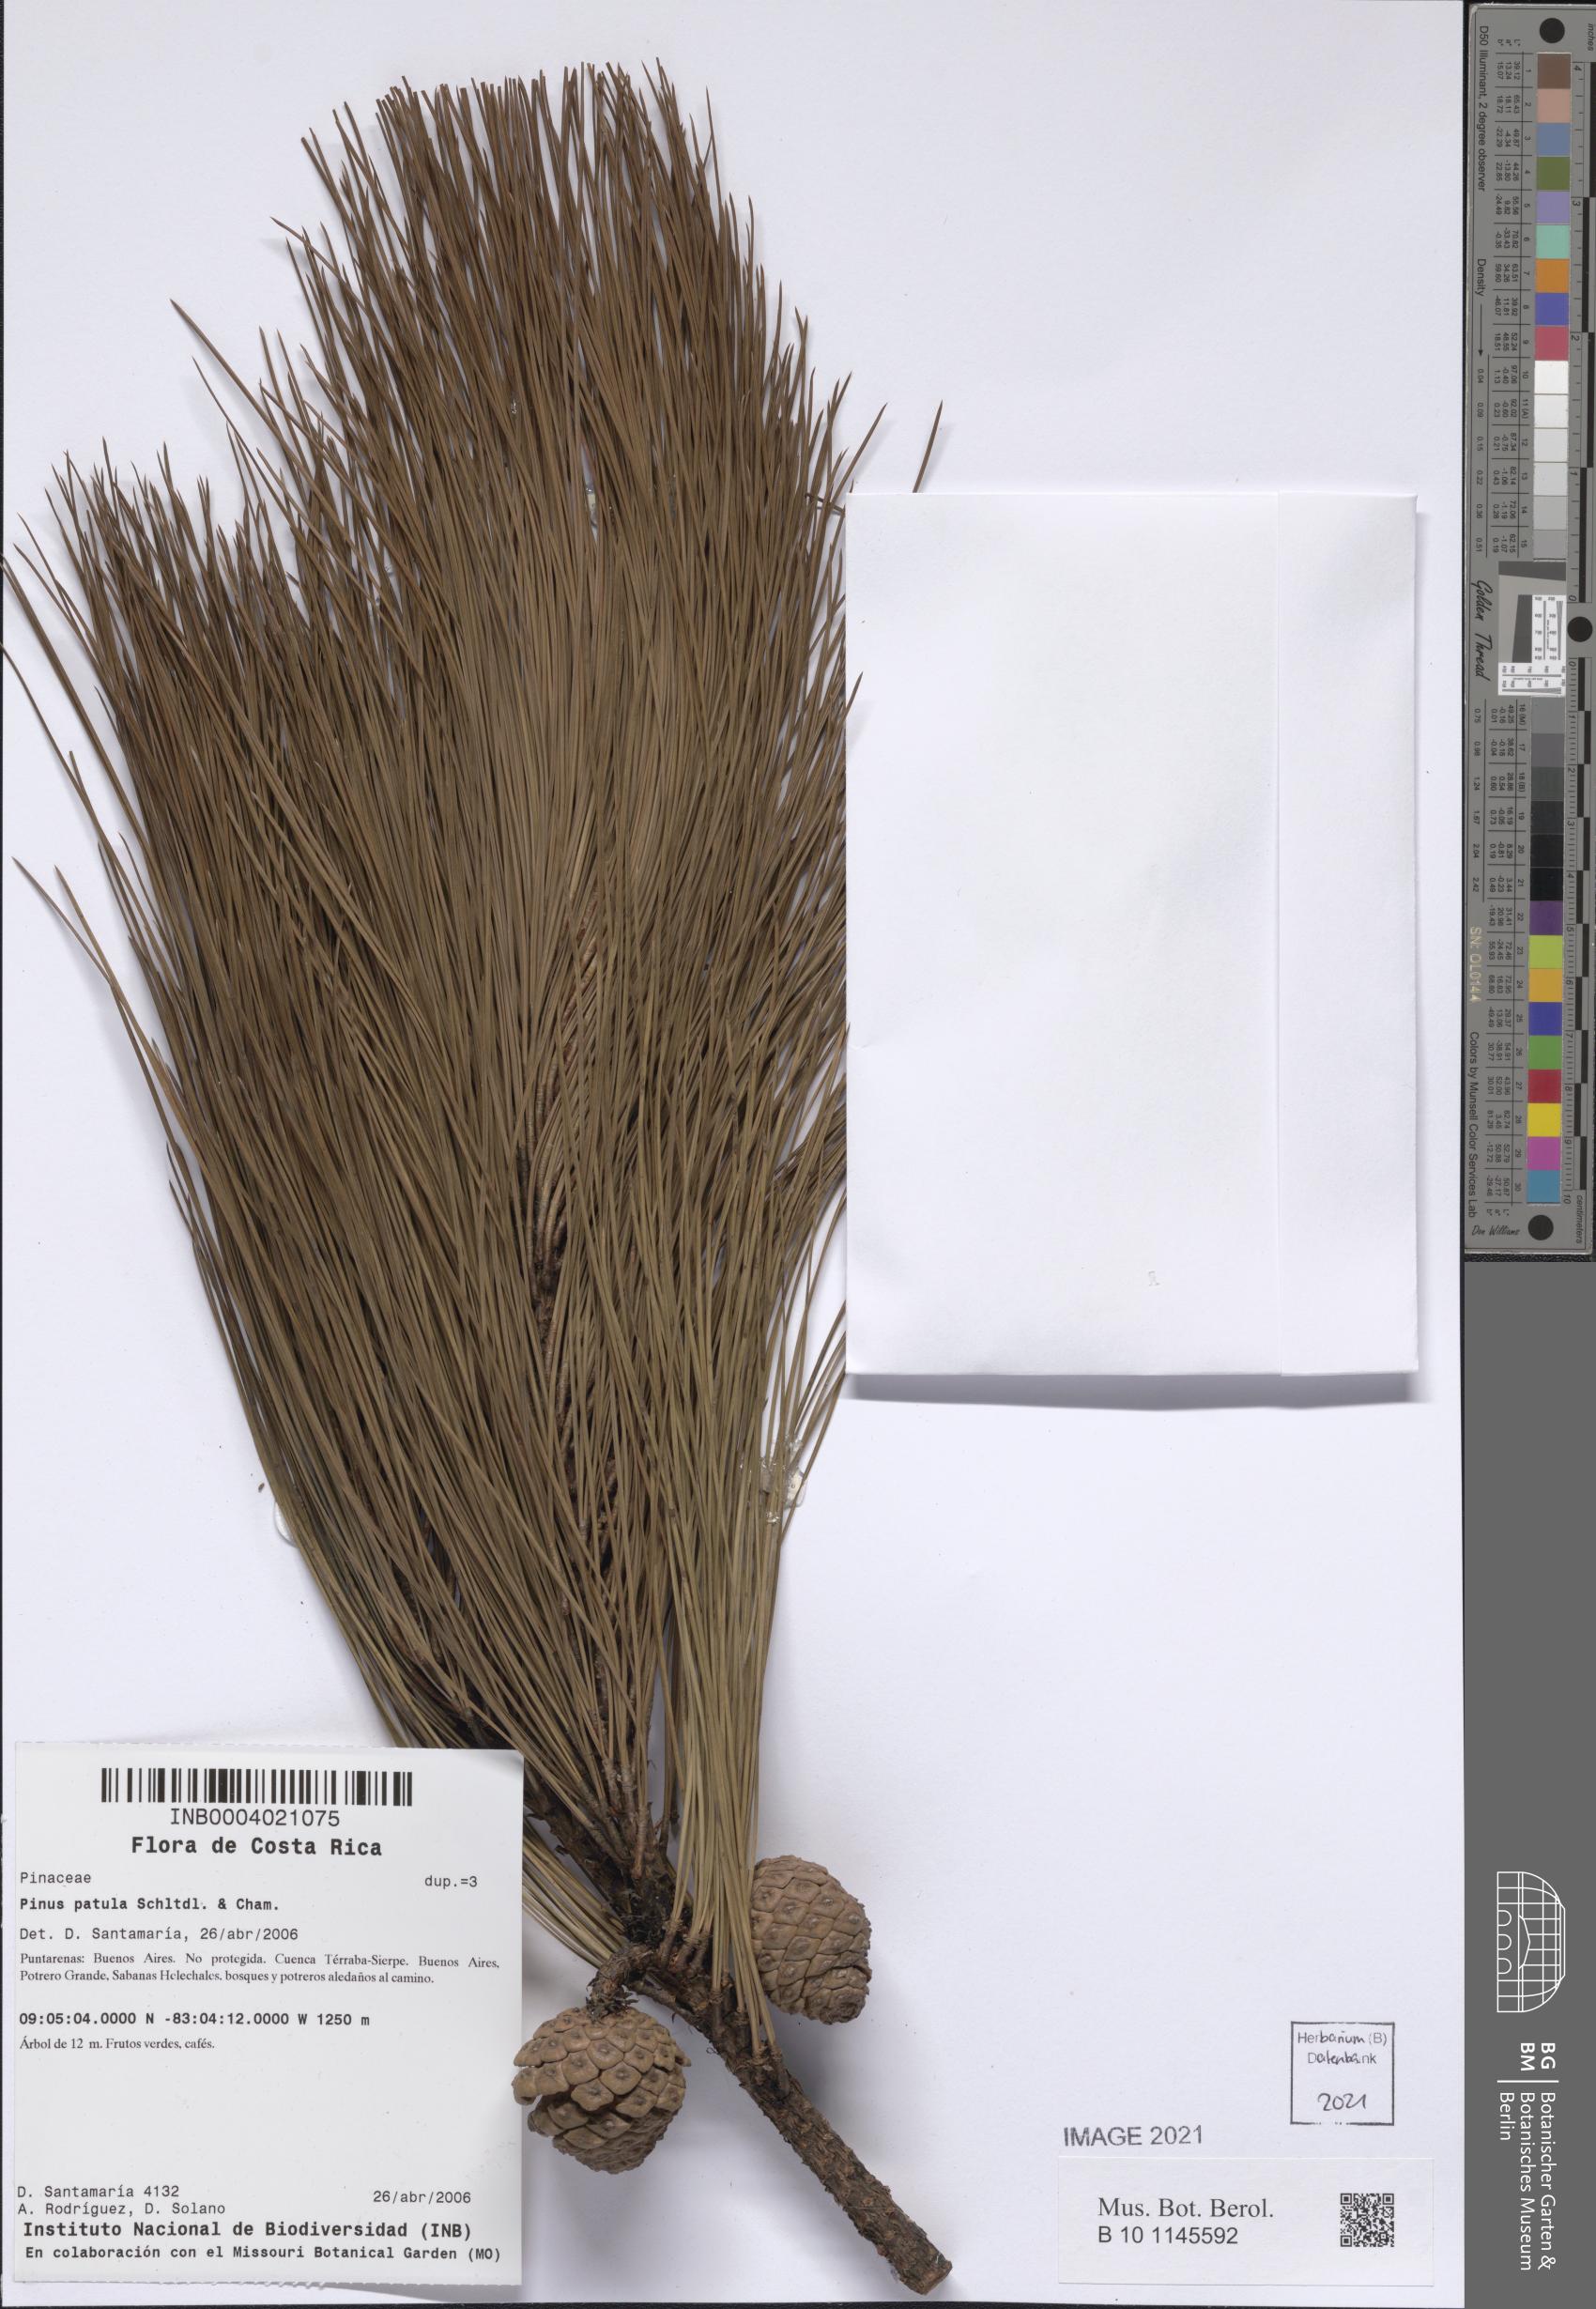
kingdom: Plantae
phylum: Tracheophyta
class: Pinopsida
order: Pinales
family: Pinaceae
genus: Pinus
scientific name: Pinus patula
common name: Mexican weeping pine
